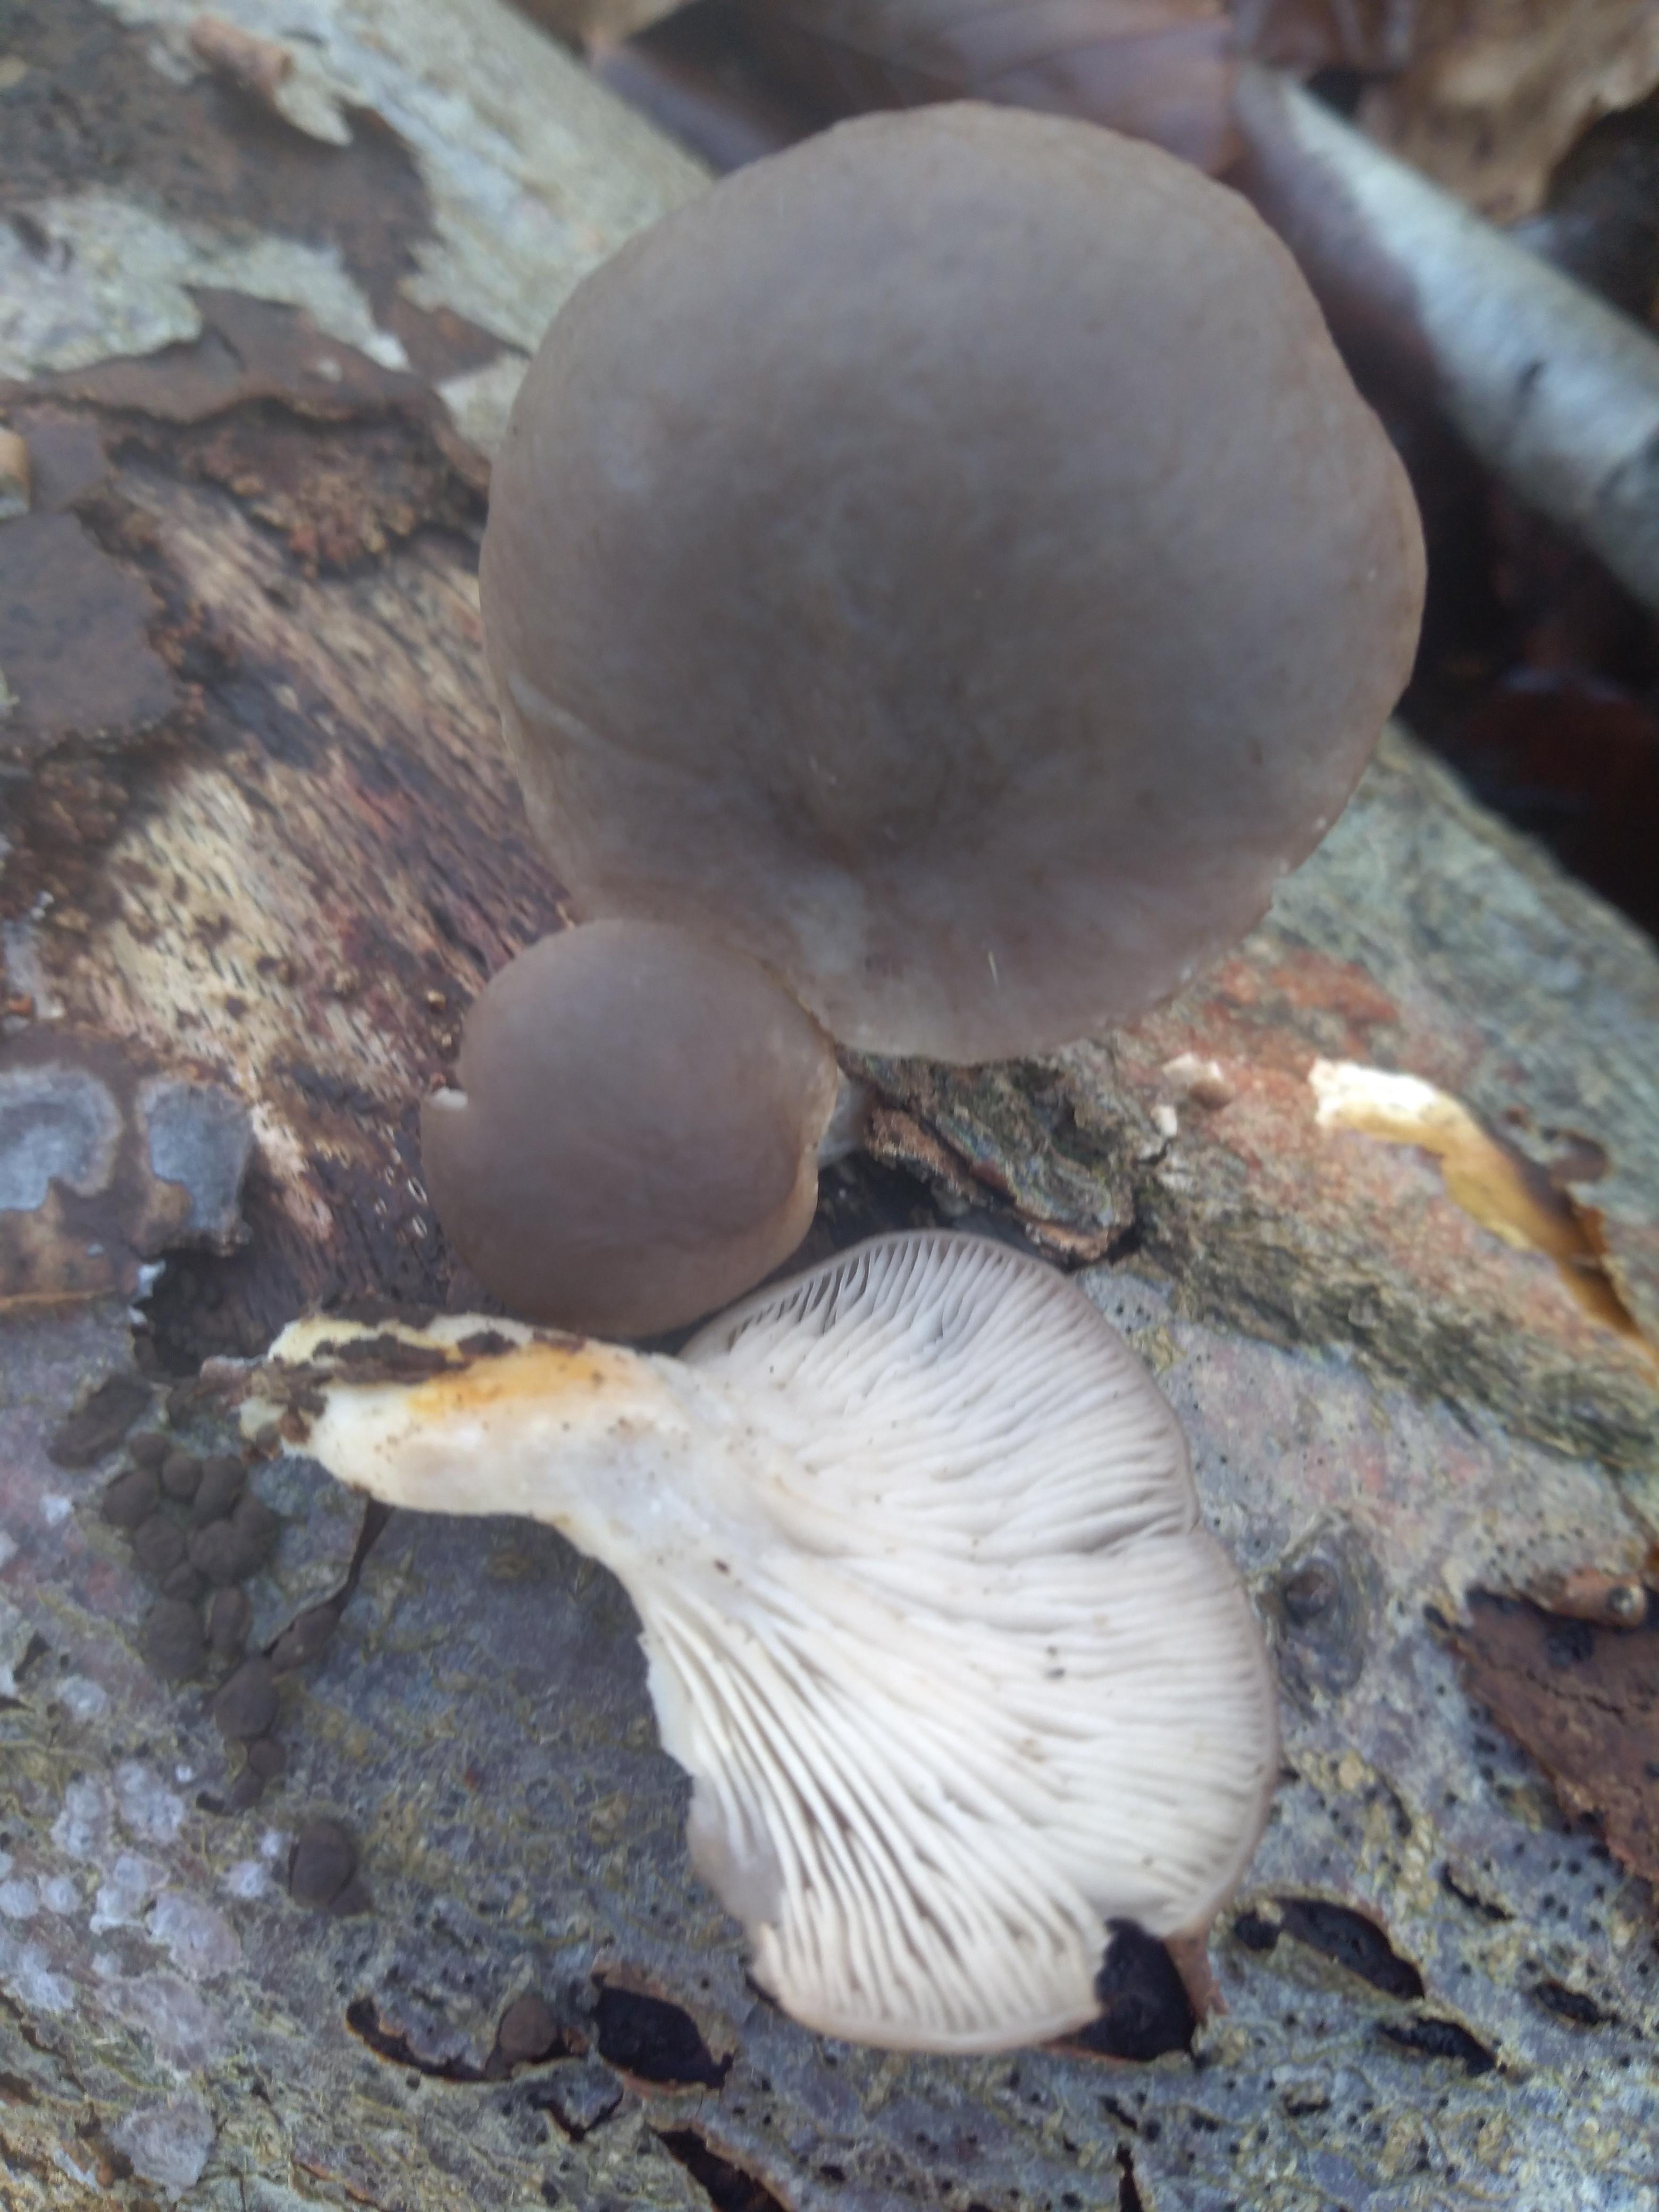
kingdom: Fungi
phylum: Basidiomycota
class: Agaricomycetes
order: Agaricales
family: Pleurotaceae
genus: Pleurotus
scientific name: Pleurotus ostreatus
